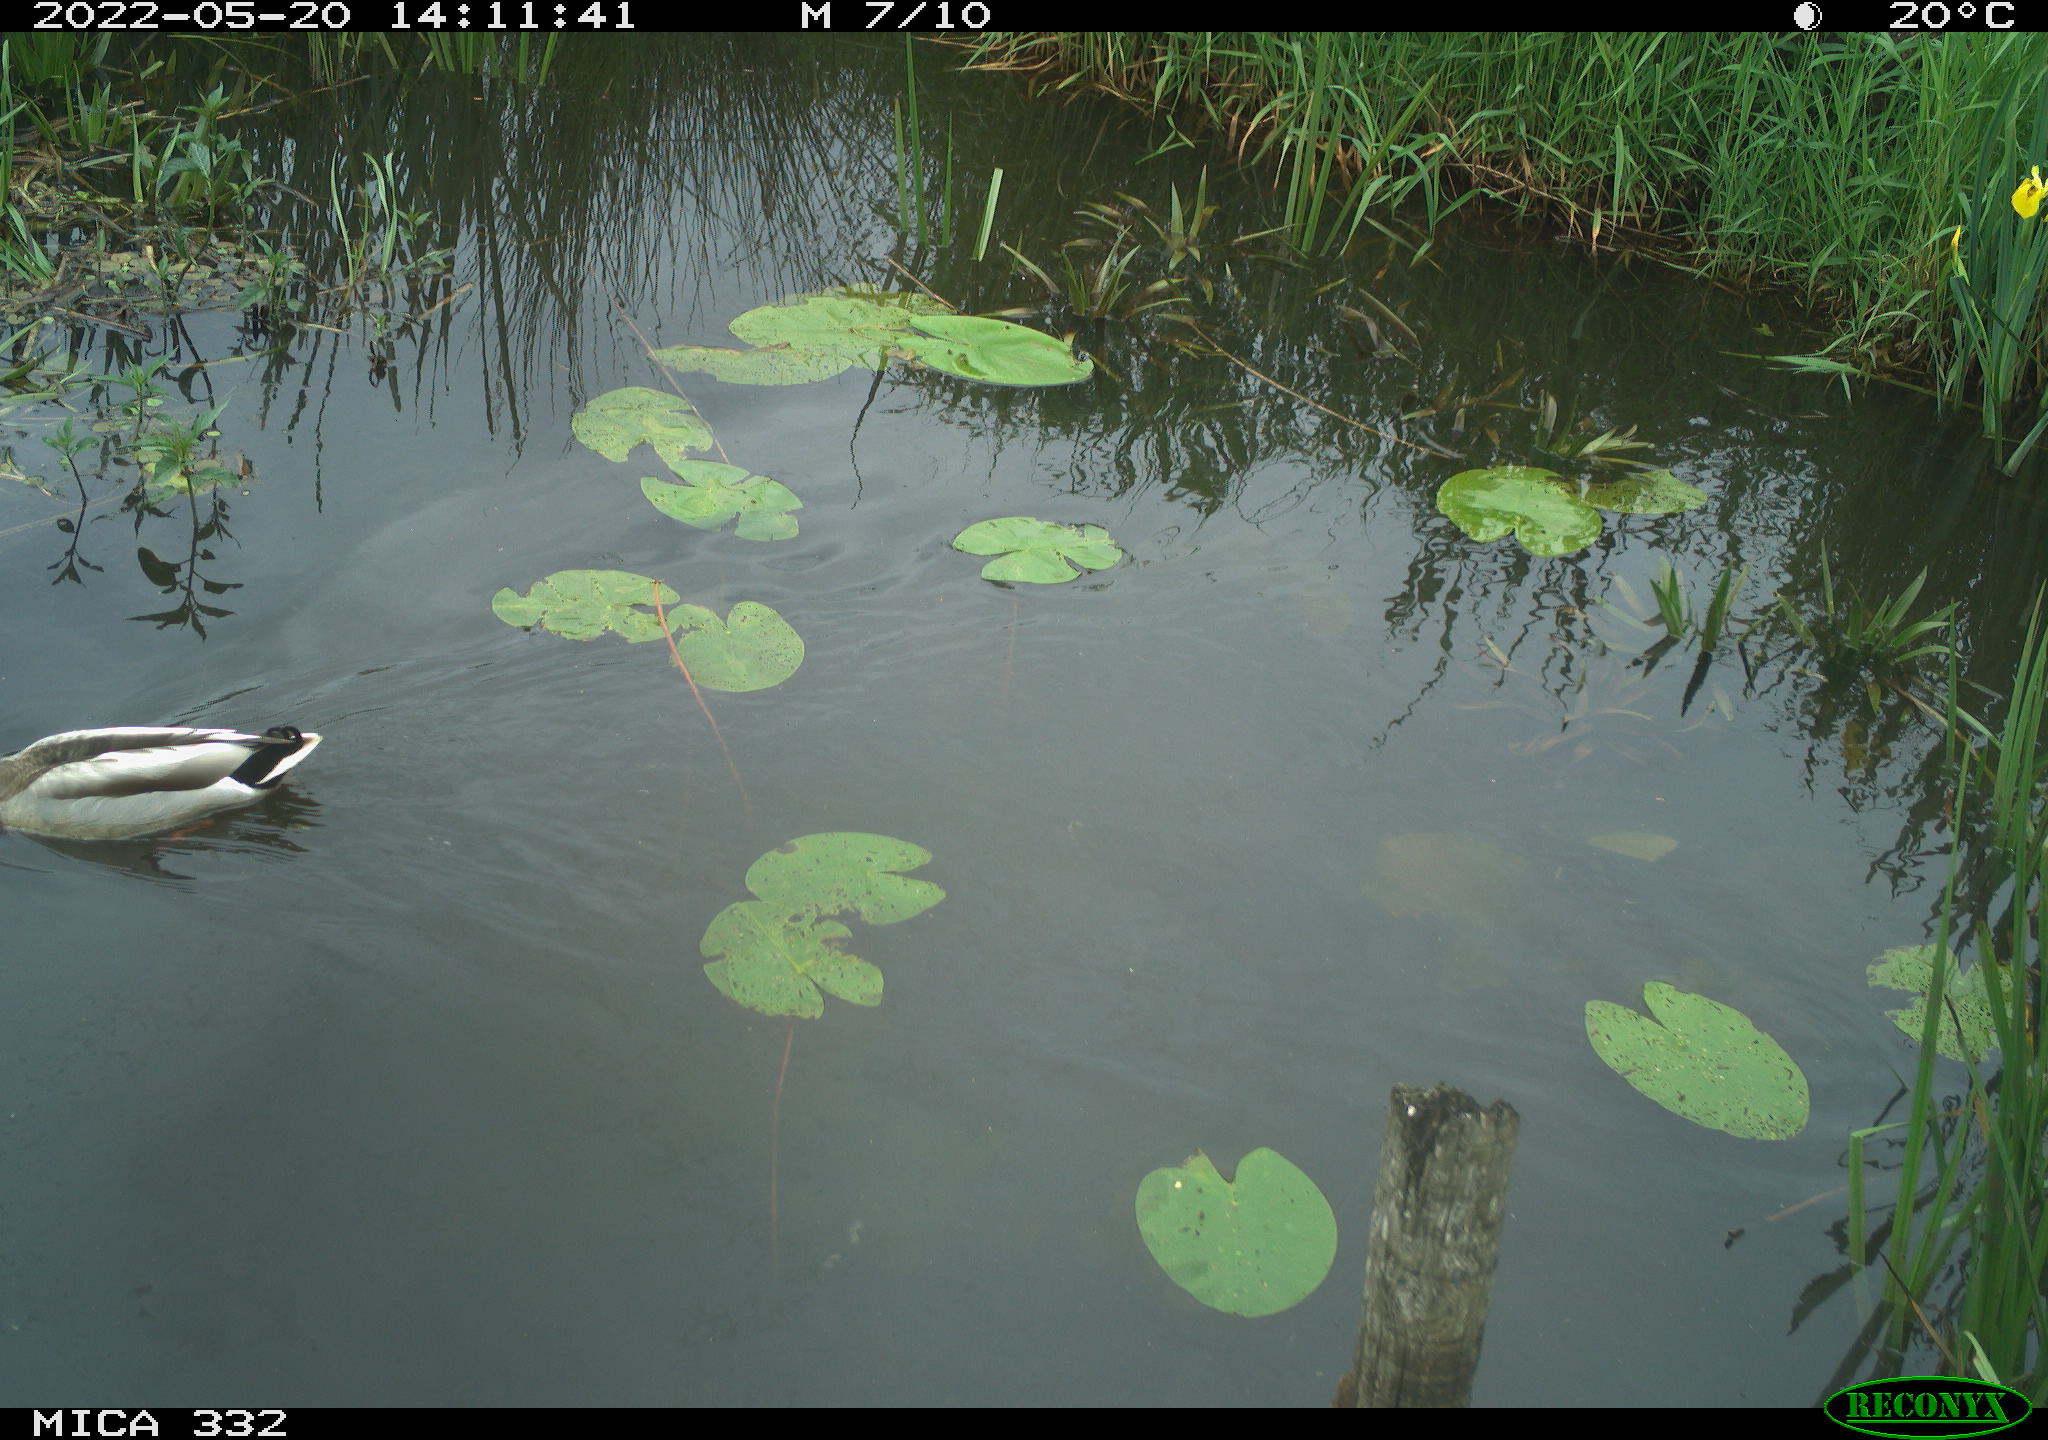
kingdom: Animalia
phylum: Chordata
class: Aves
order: Anseriformes
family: Anatidae
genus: Anas
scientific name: Anas platyrhynchos
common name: Mallard
